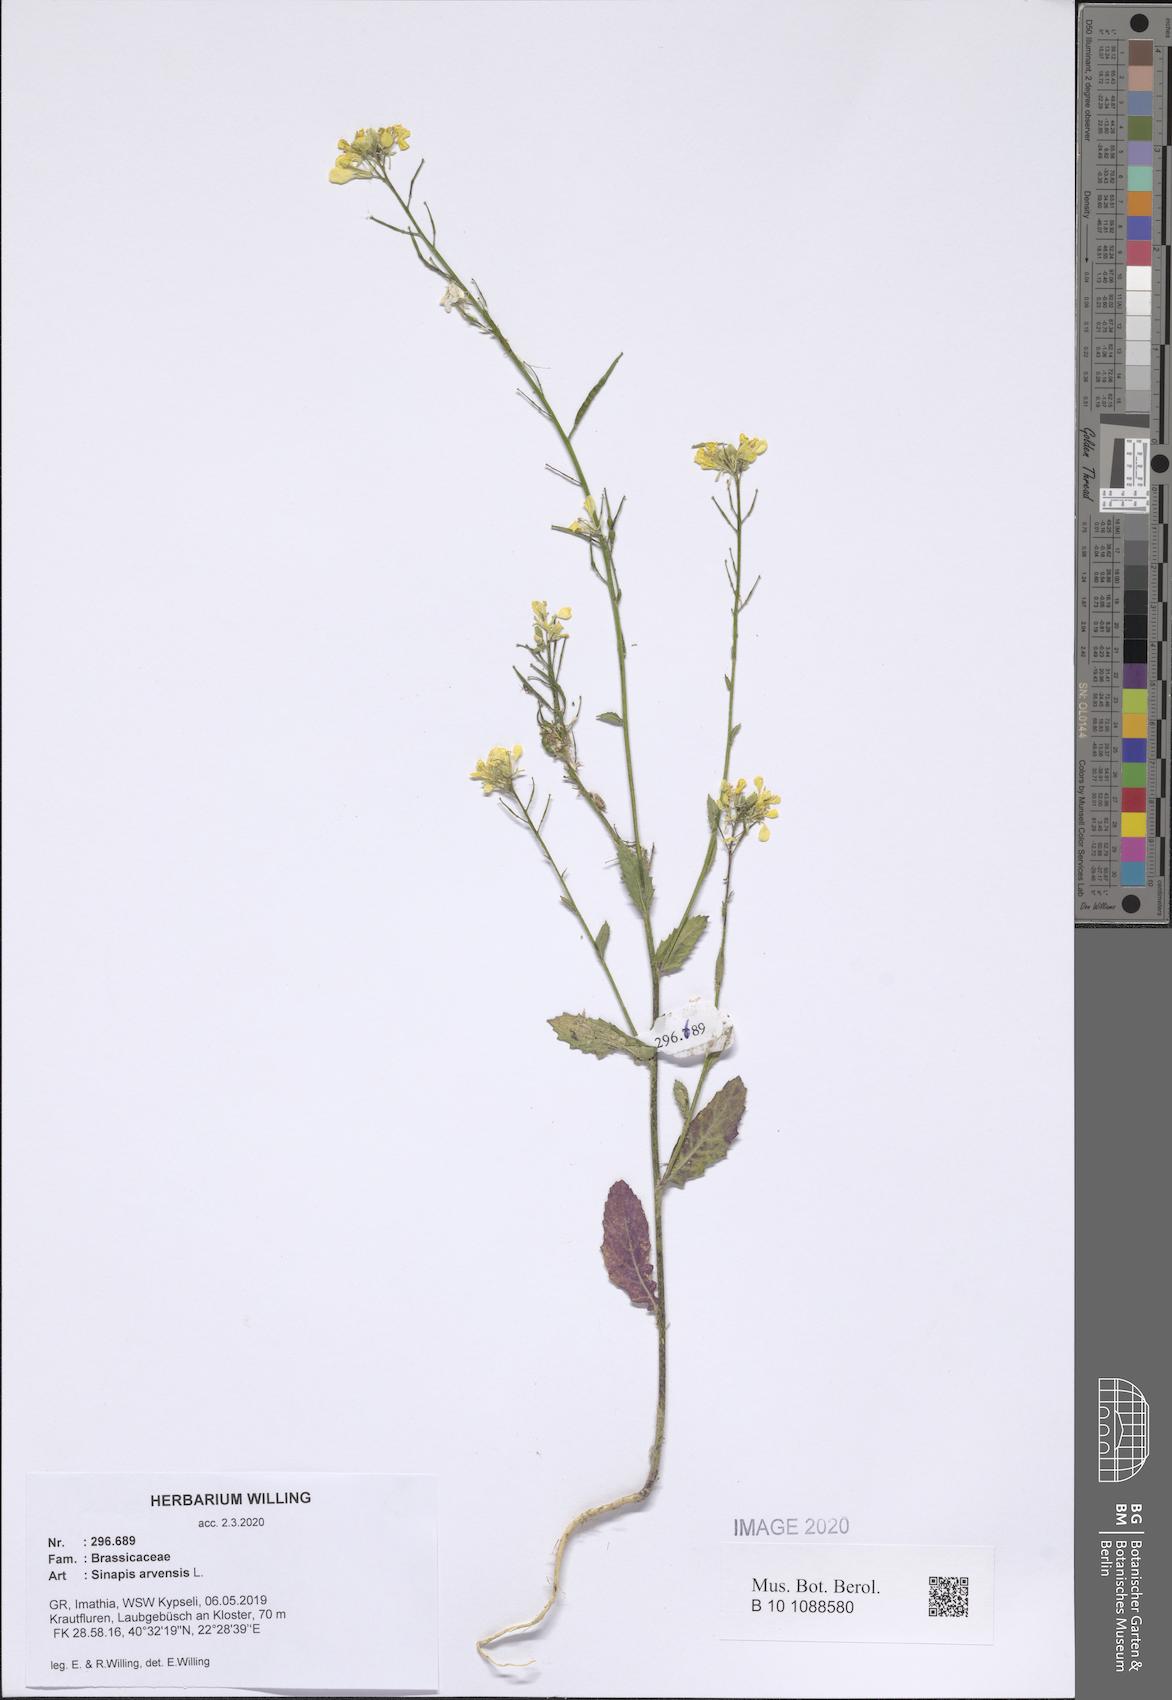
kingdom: Plantae
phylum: Tracheophyta
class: Magnoliopsida
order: Brassicales
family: Brassicaceae
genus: Sinapis
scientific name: Sinapis arvensis
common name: Charlock
